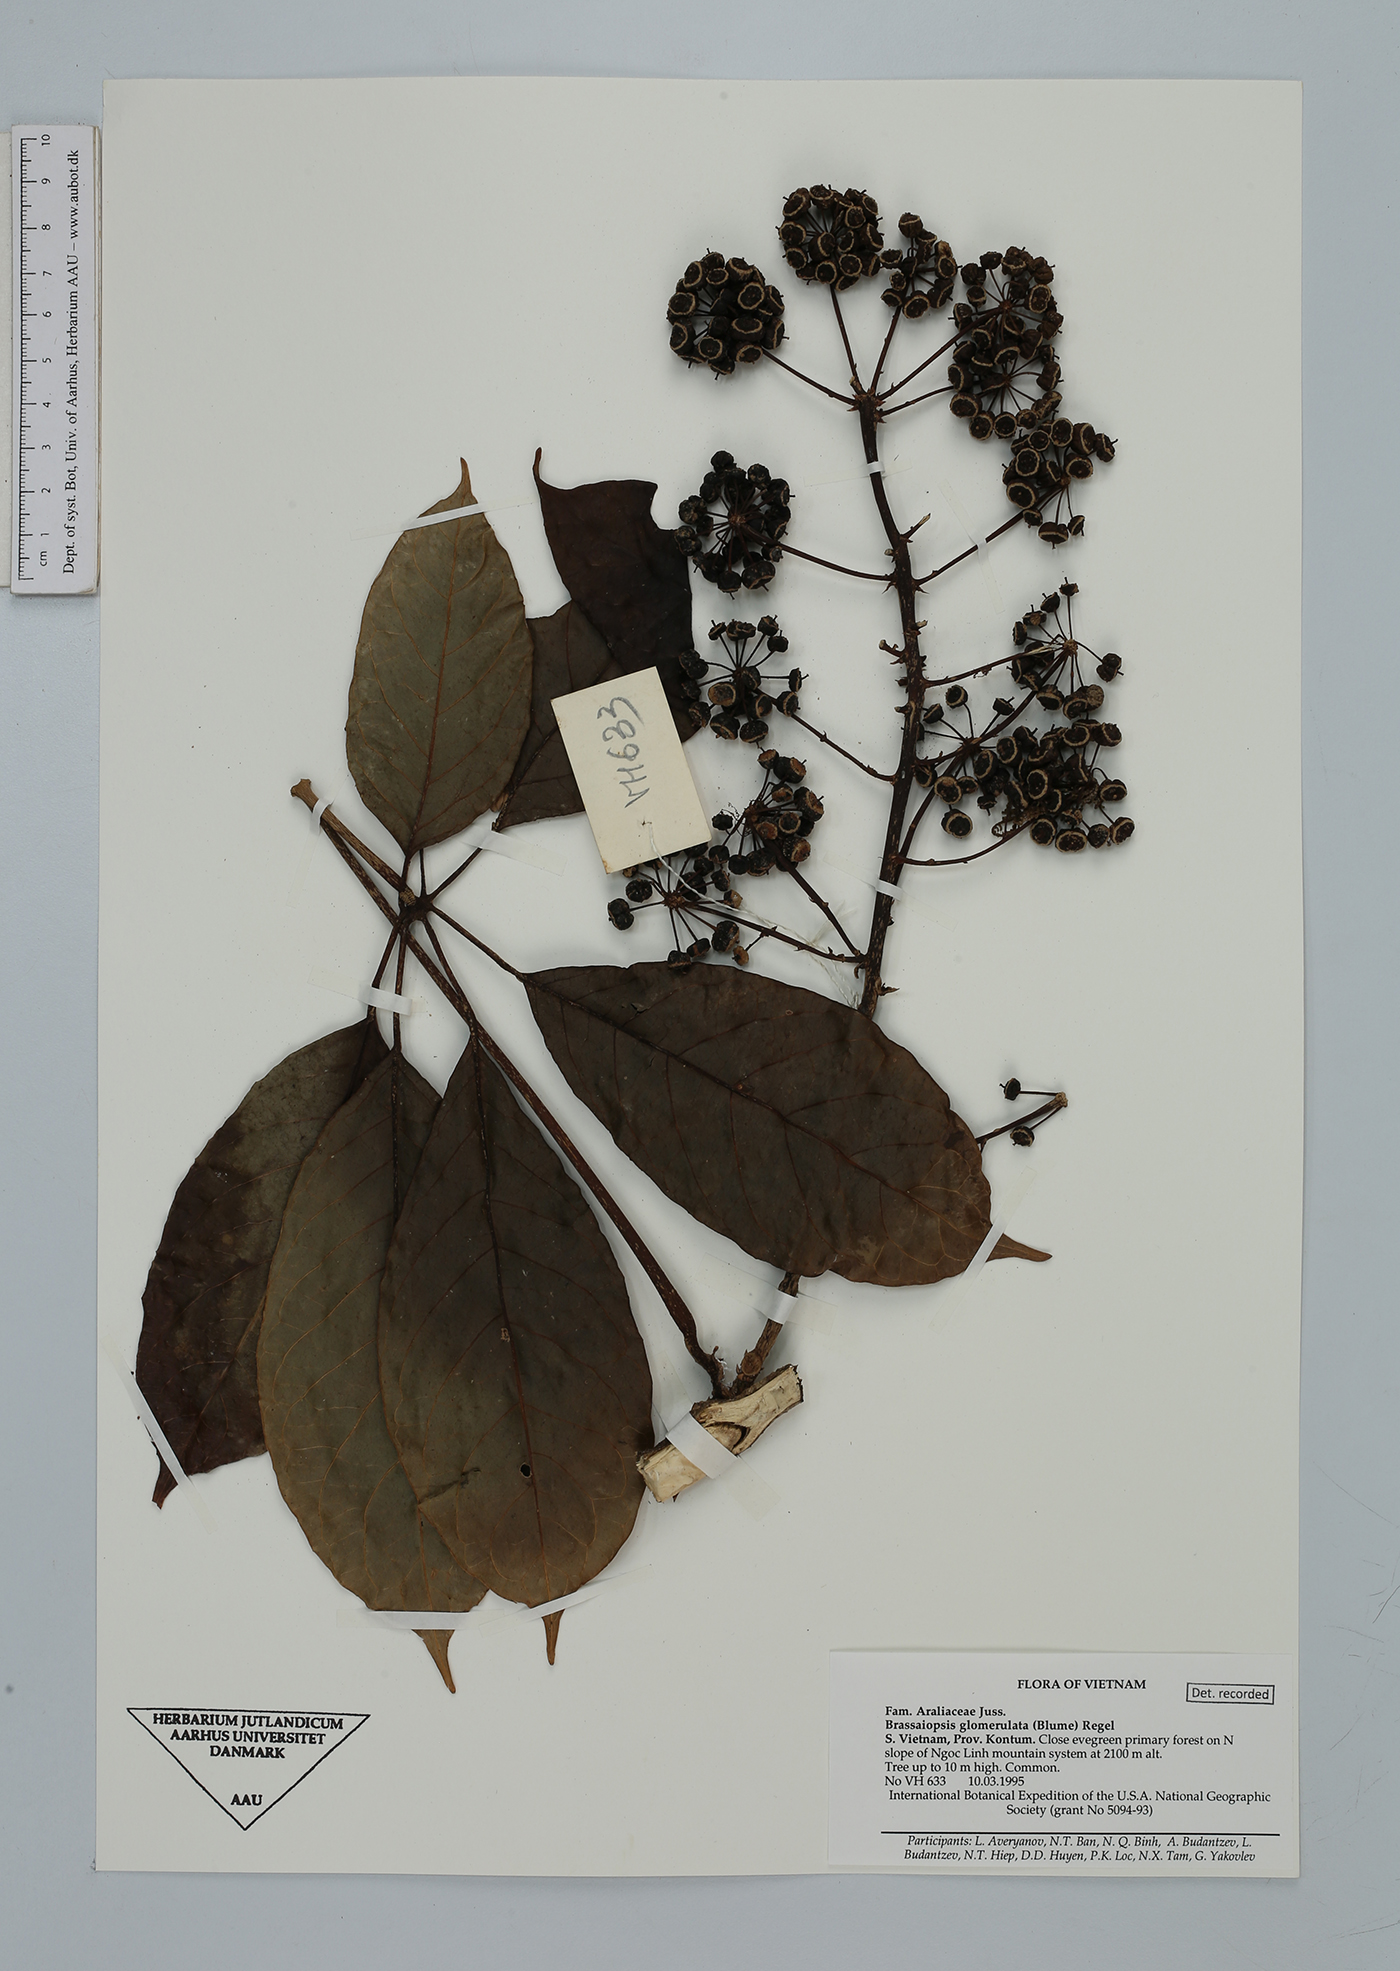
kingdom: Plantae
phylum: Tracheophyta
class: Magnoliopsida
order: Apiales
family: Araliaceae
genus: Brassaiopsis
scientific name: Brassaiopsis glomerulata
